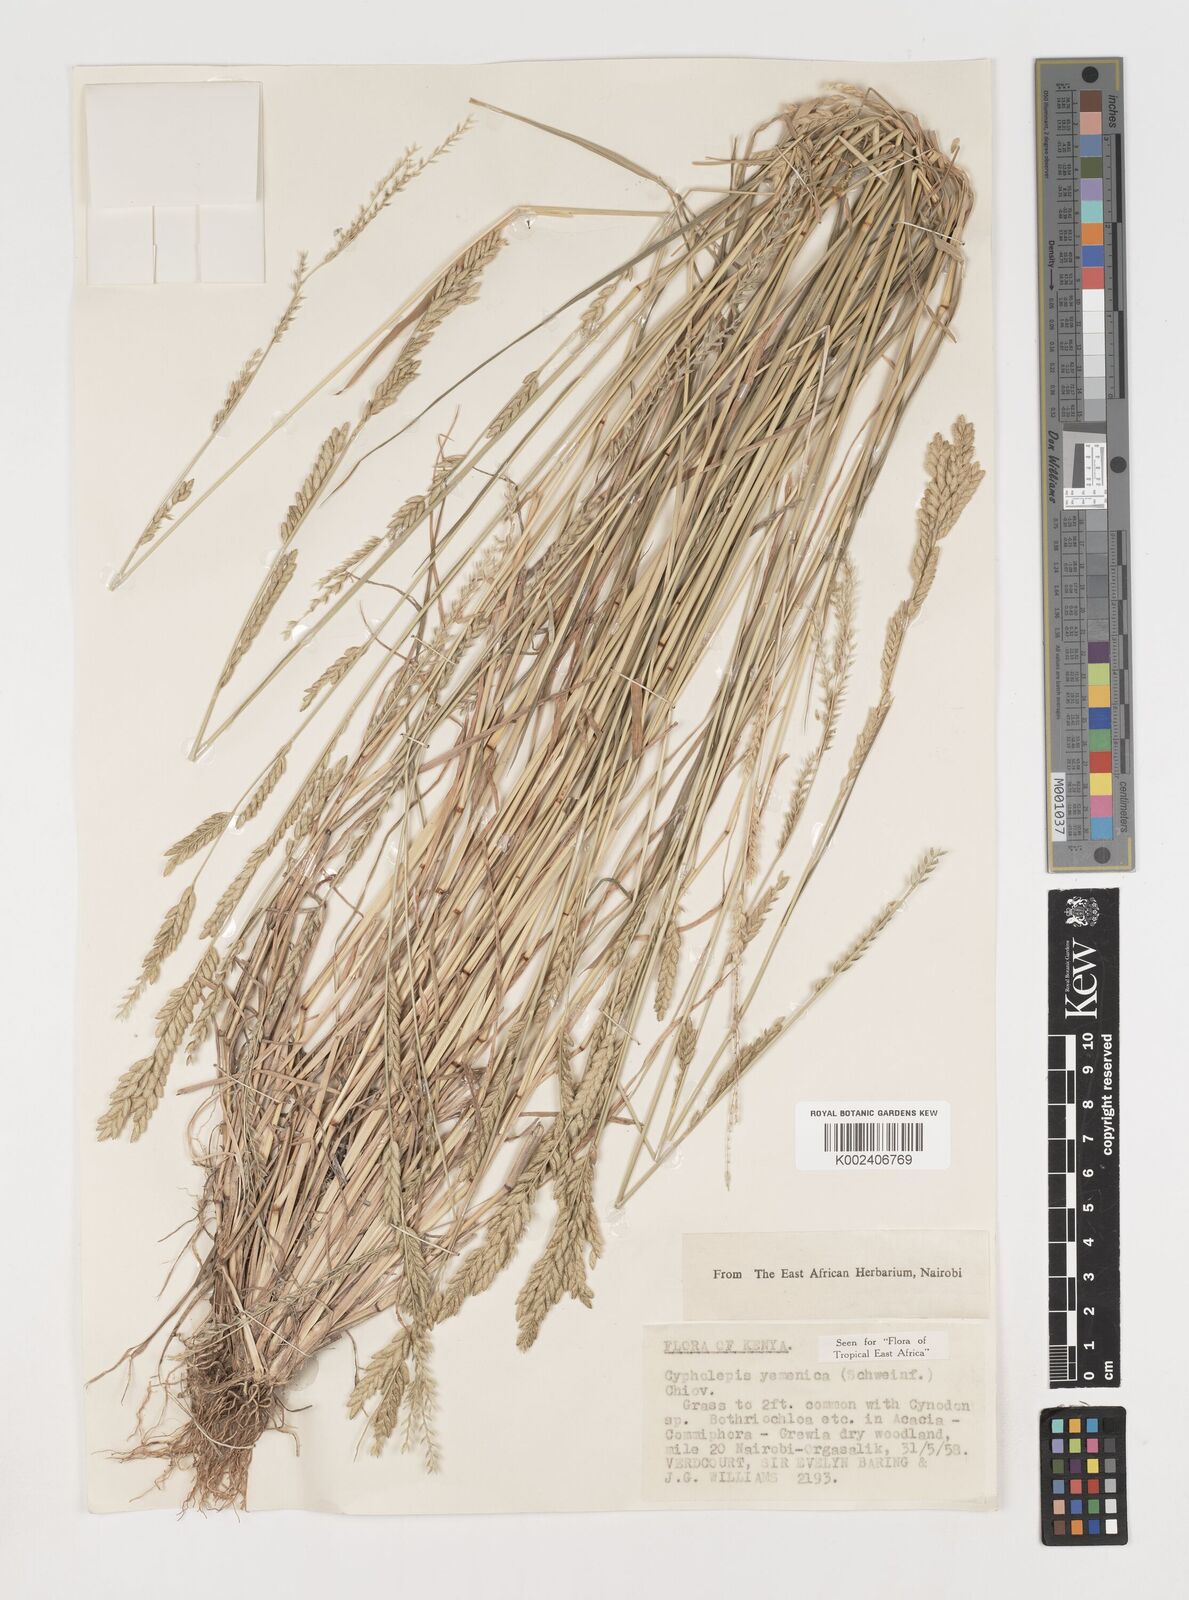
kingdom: Plantae
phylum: Tracheophyta
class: Liliopsida
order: Poales
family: Poaceae
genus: Disakisperma
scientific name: Disakisperma yemenicum
